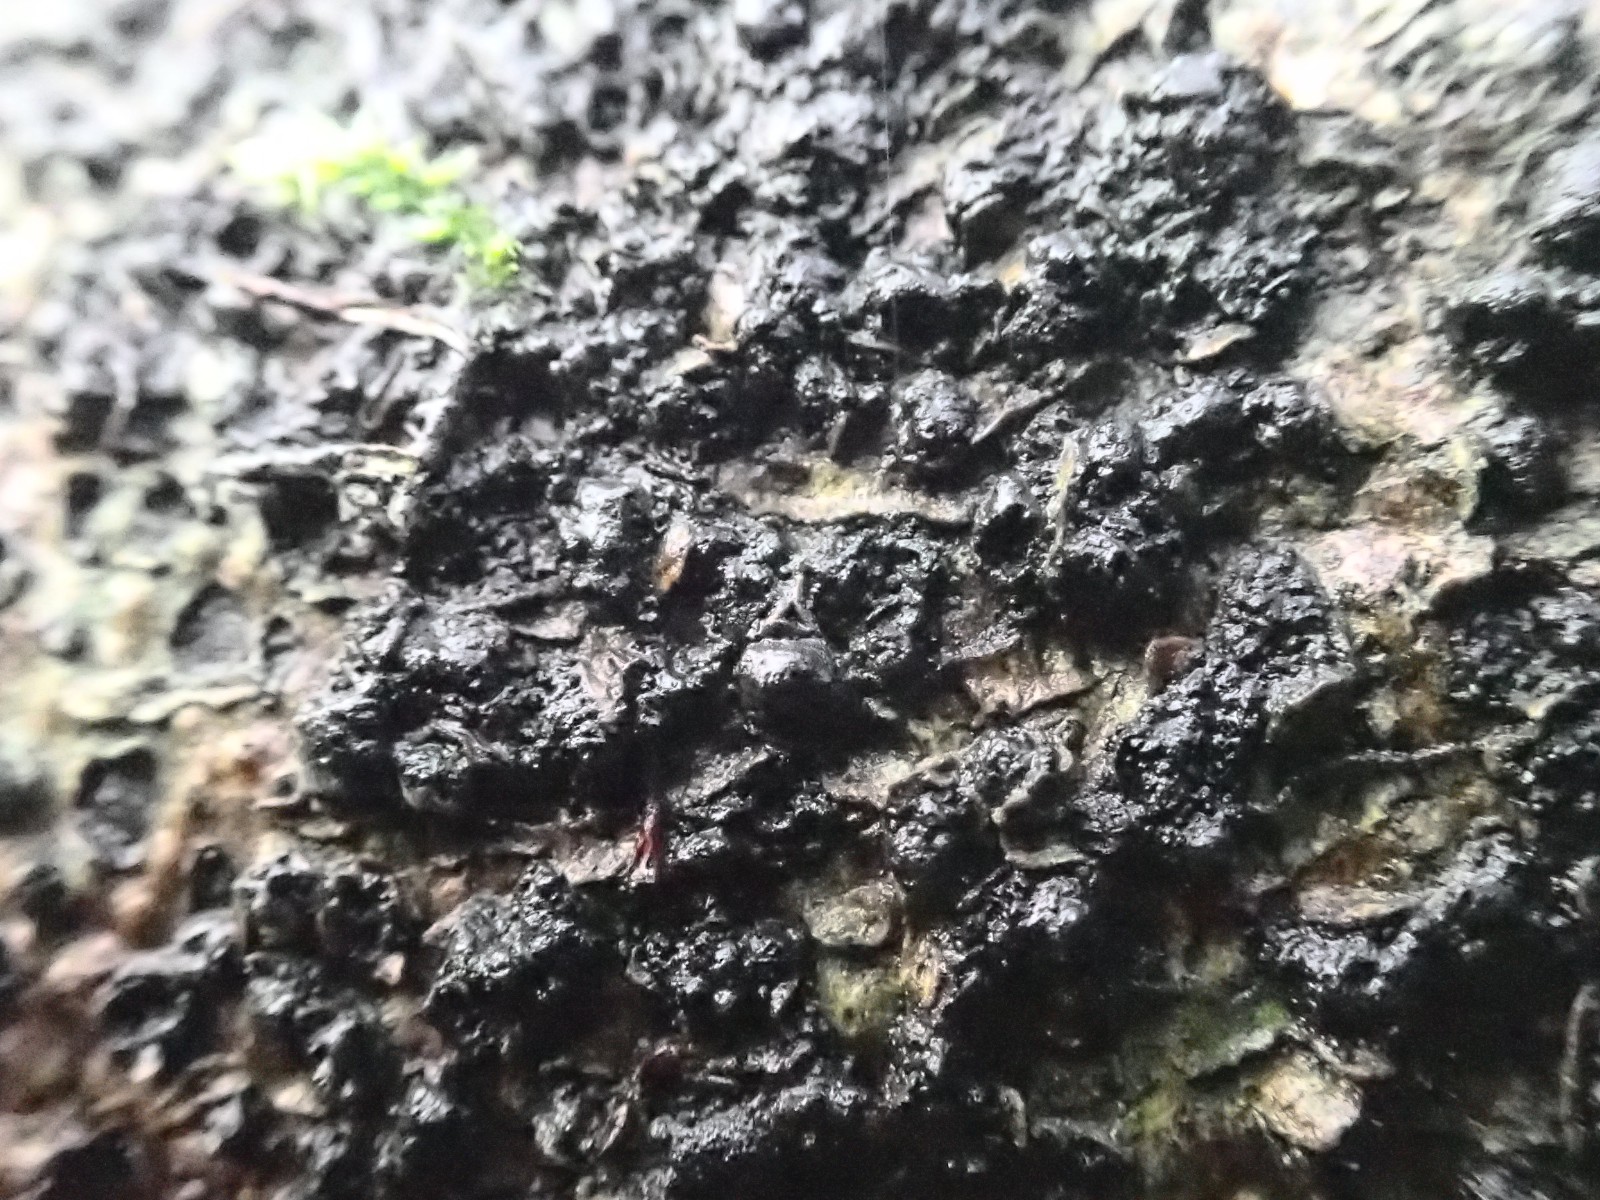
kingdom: Fungi
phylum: Ascomycota
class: Sordariomycetes
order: Xylariales
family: Melogrammataceae
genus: Melogramma
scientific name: Melogramma spiniferum
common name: bøgefod-kulhals
